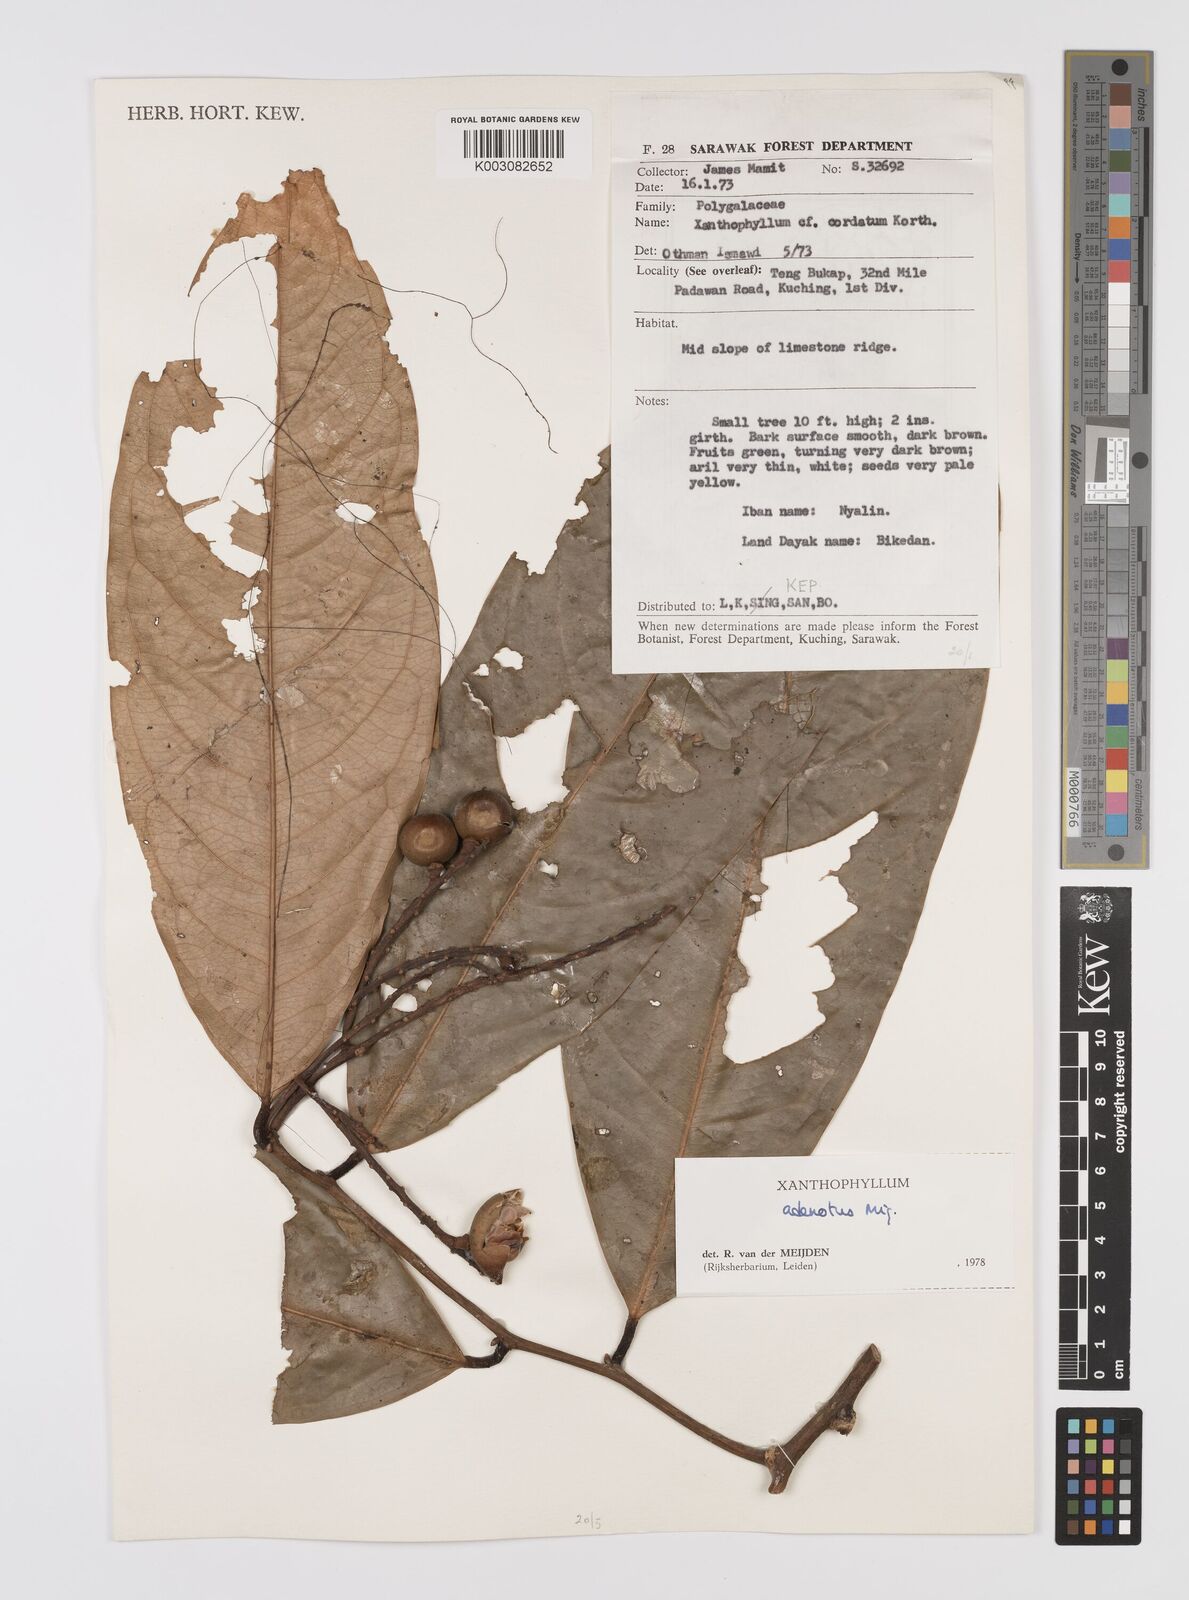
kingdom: Plantae
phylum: Tracheophyta
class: Magnoliopsida
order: Fabales
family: Polygalaceae
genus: Xanthophyllum
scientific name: Xanthophyllum adenotus
